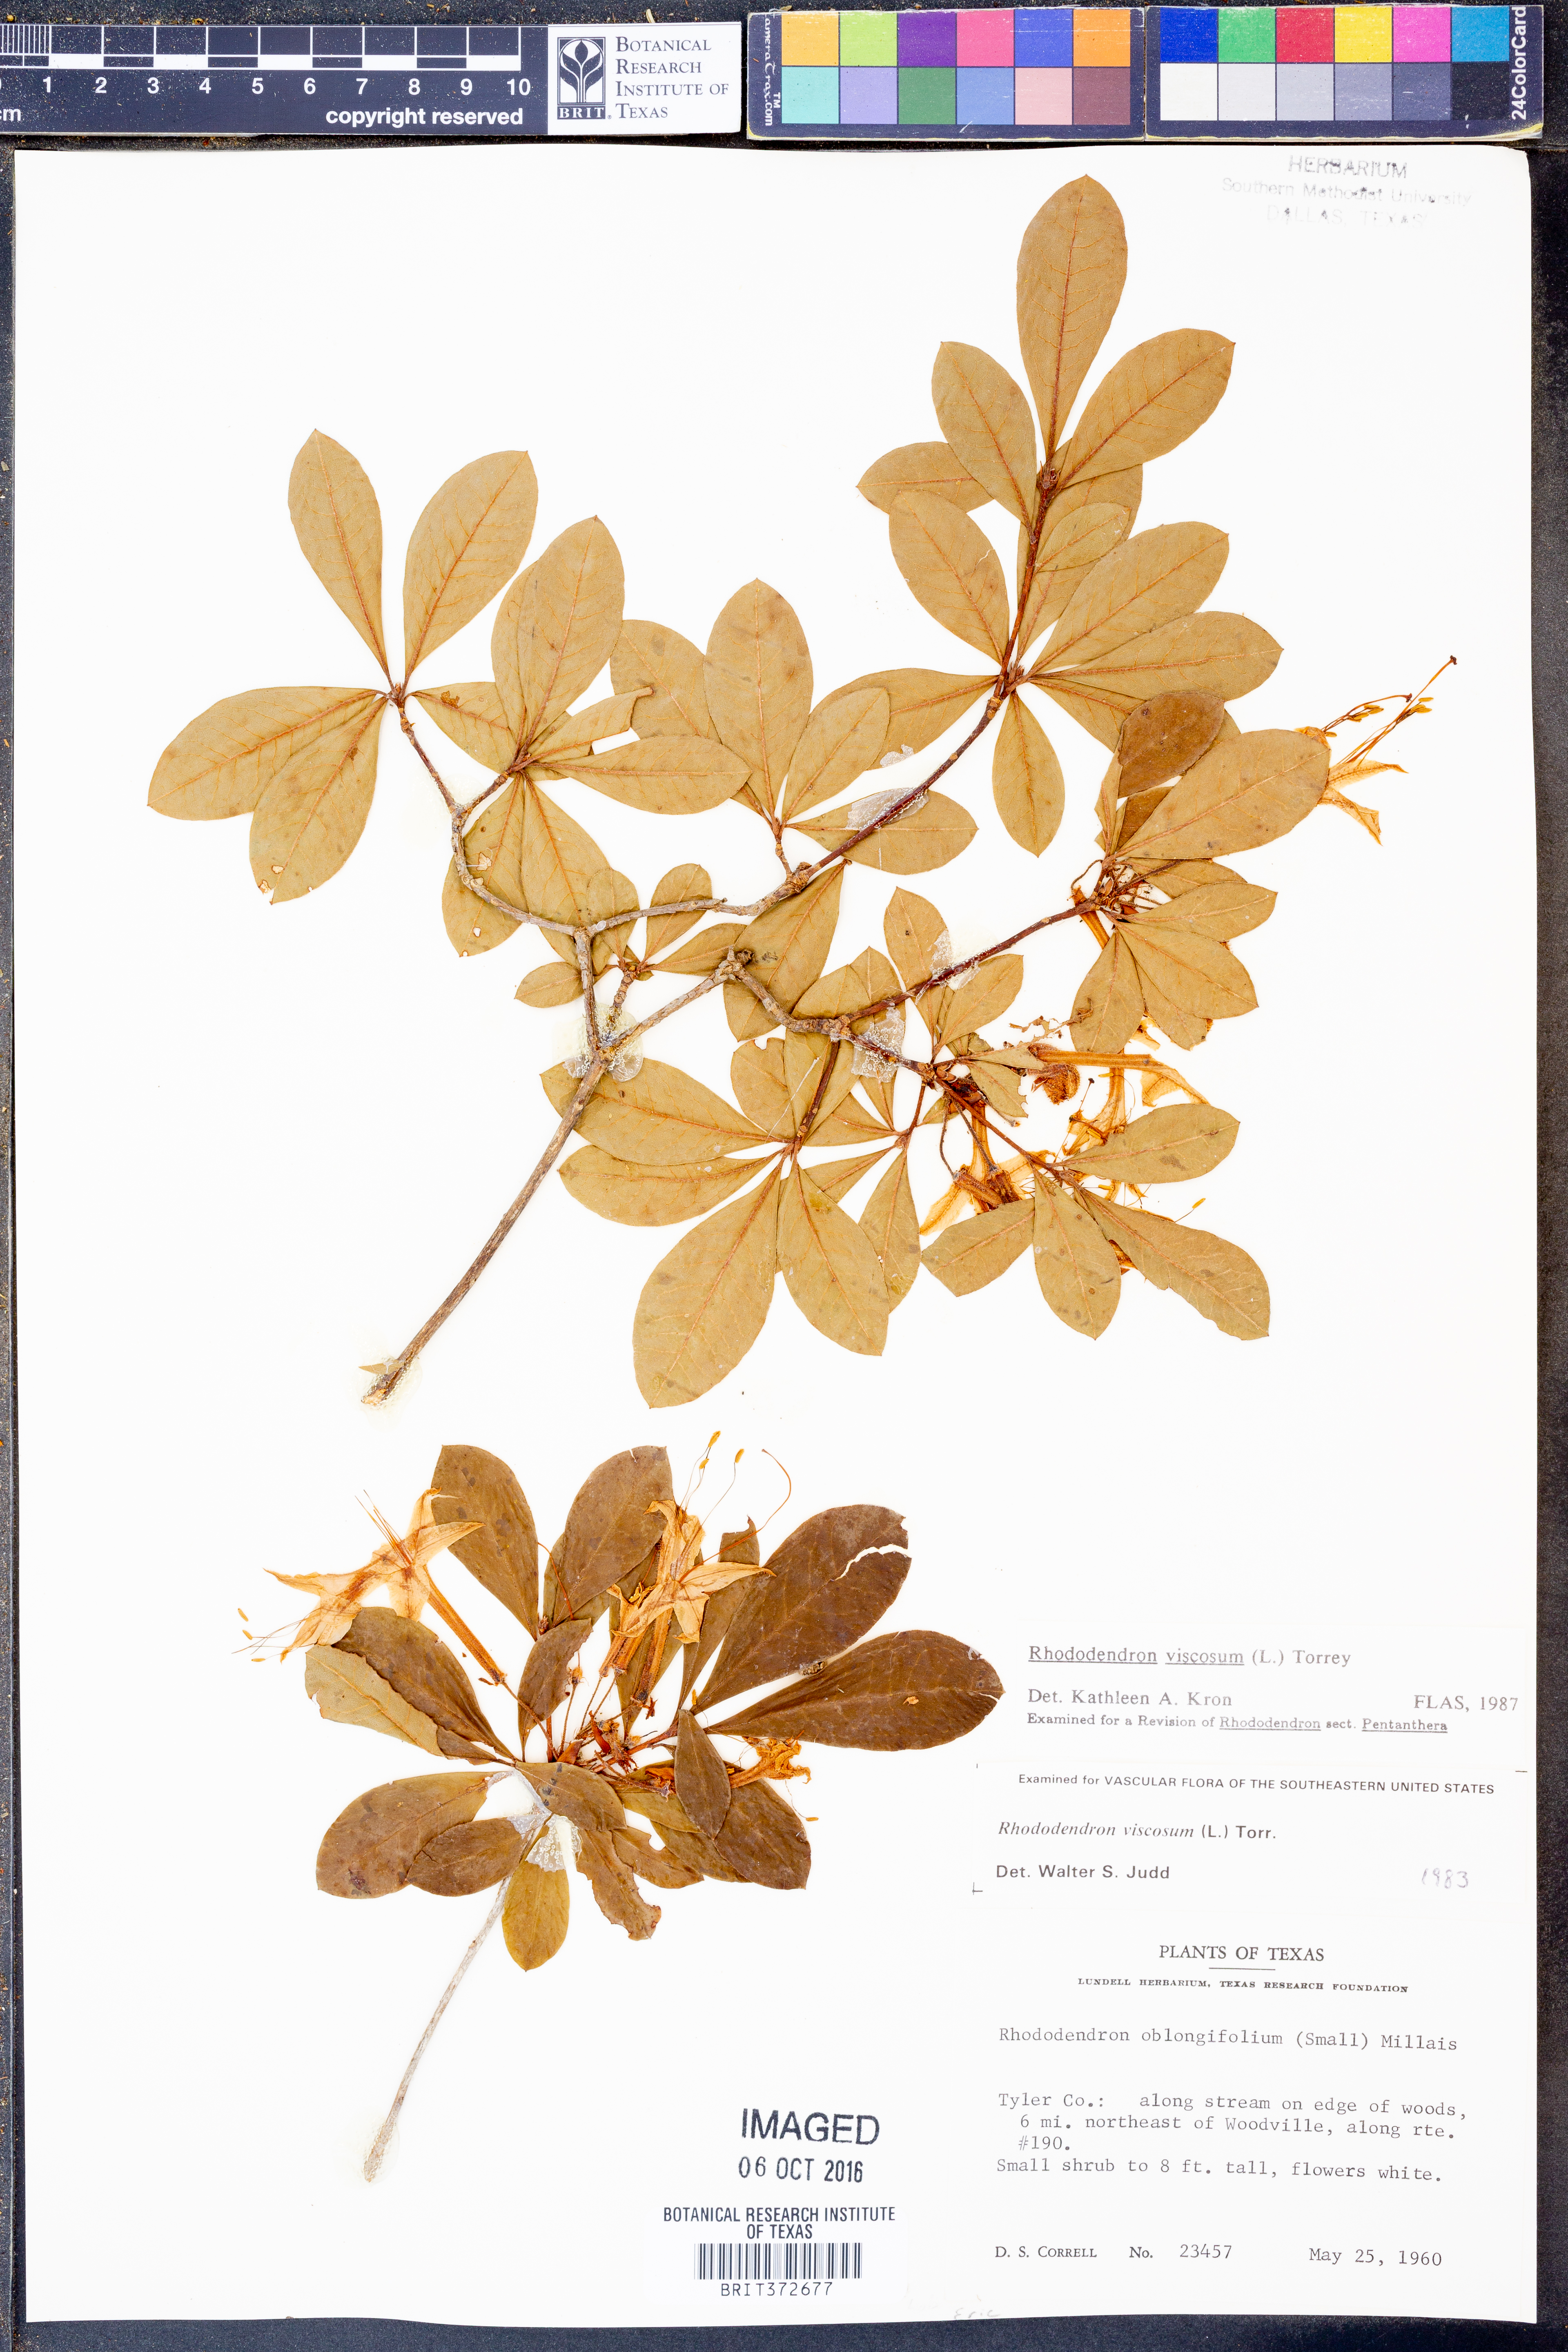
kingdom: Plantae
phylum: Tracheophyta
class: Magnoliopsida
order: Ericales
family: Ericaceae
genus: Rhododendron
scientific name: Rhododendron viscosum
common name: Clammy azalea
